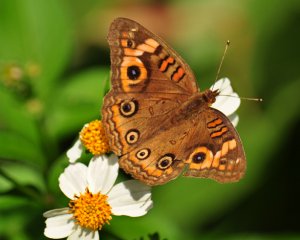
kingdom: Animalia
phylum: Arthropoda
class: Insecta
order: Lepidoptera
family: Nymphalidae
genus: Junonia
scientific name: Junonia evarete
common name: Mangrove Buckeye
